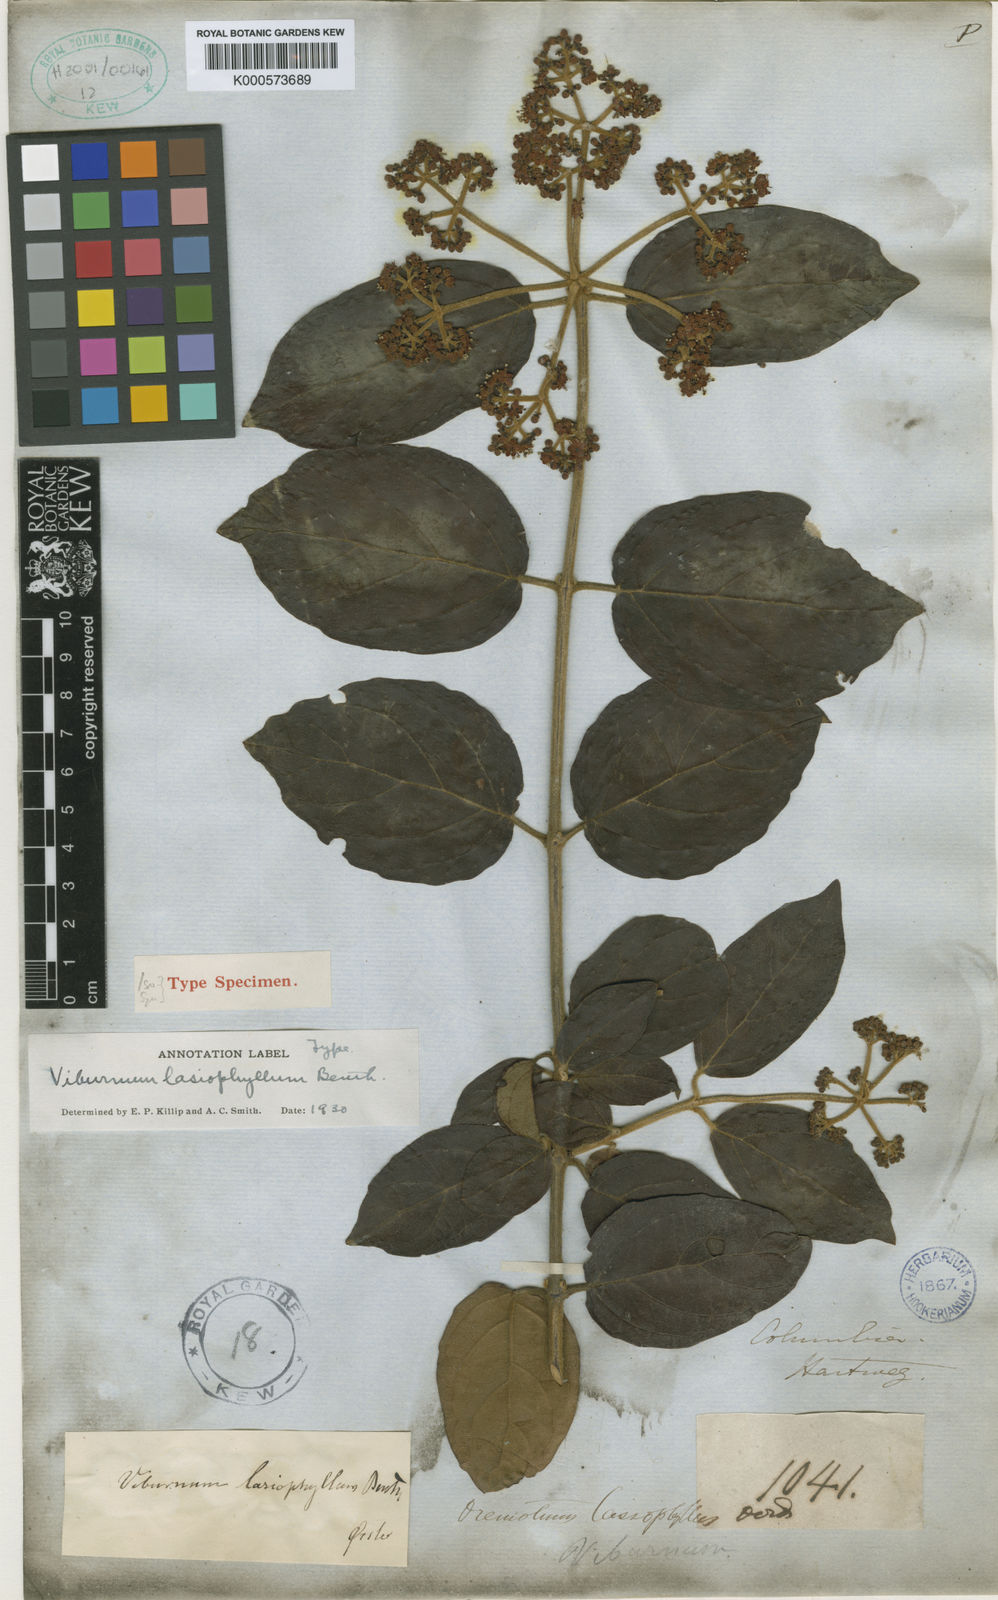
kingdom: Plantae
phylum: Tracheophyta
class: Magnoliopsida
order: Dipsacales
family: Viburnaceae
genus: Viburnum
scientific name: Viburnum lasiophyllum
